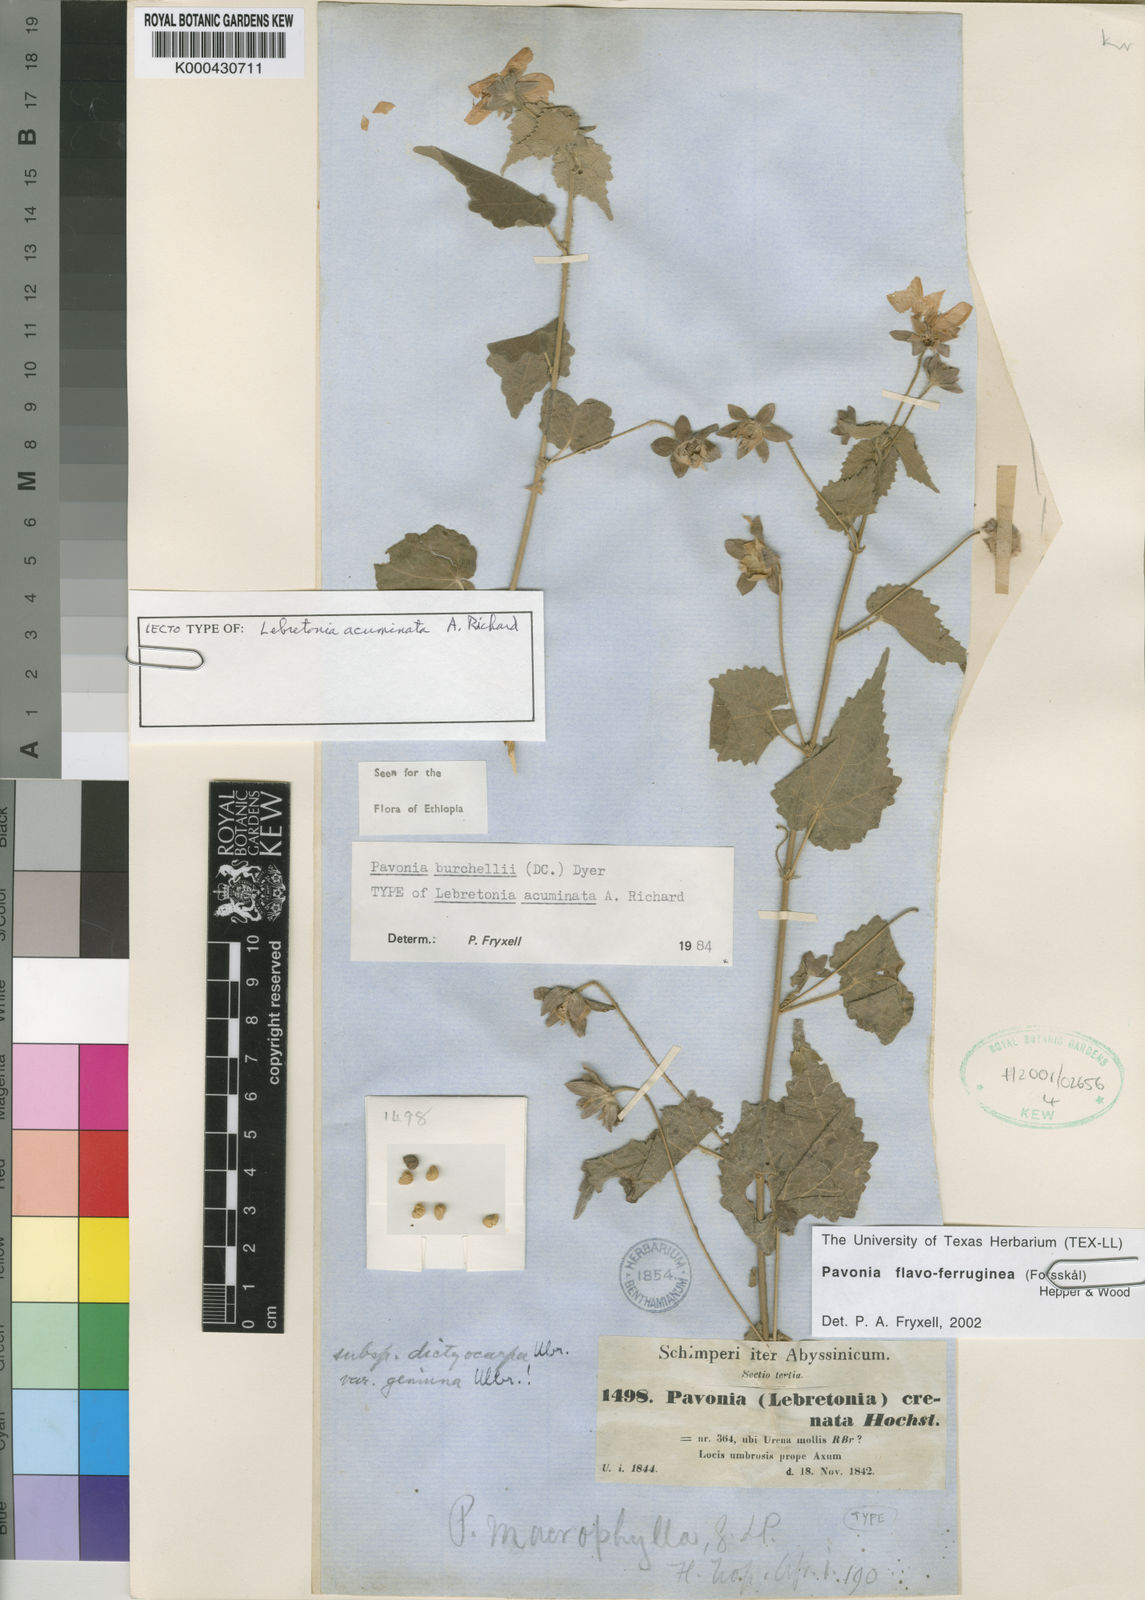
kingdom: Plantae
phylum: Tracheophyta
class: Magnoliopsida
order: Malvales
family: Malvaceae
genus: Pavonia
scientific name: Pavonia burchellii
